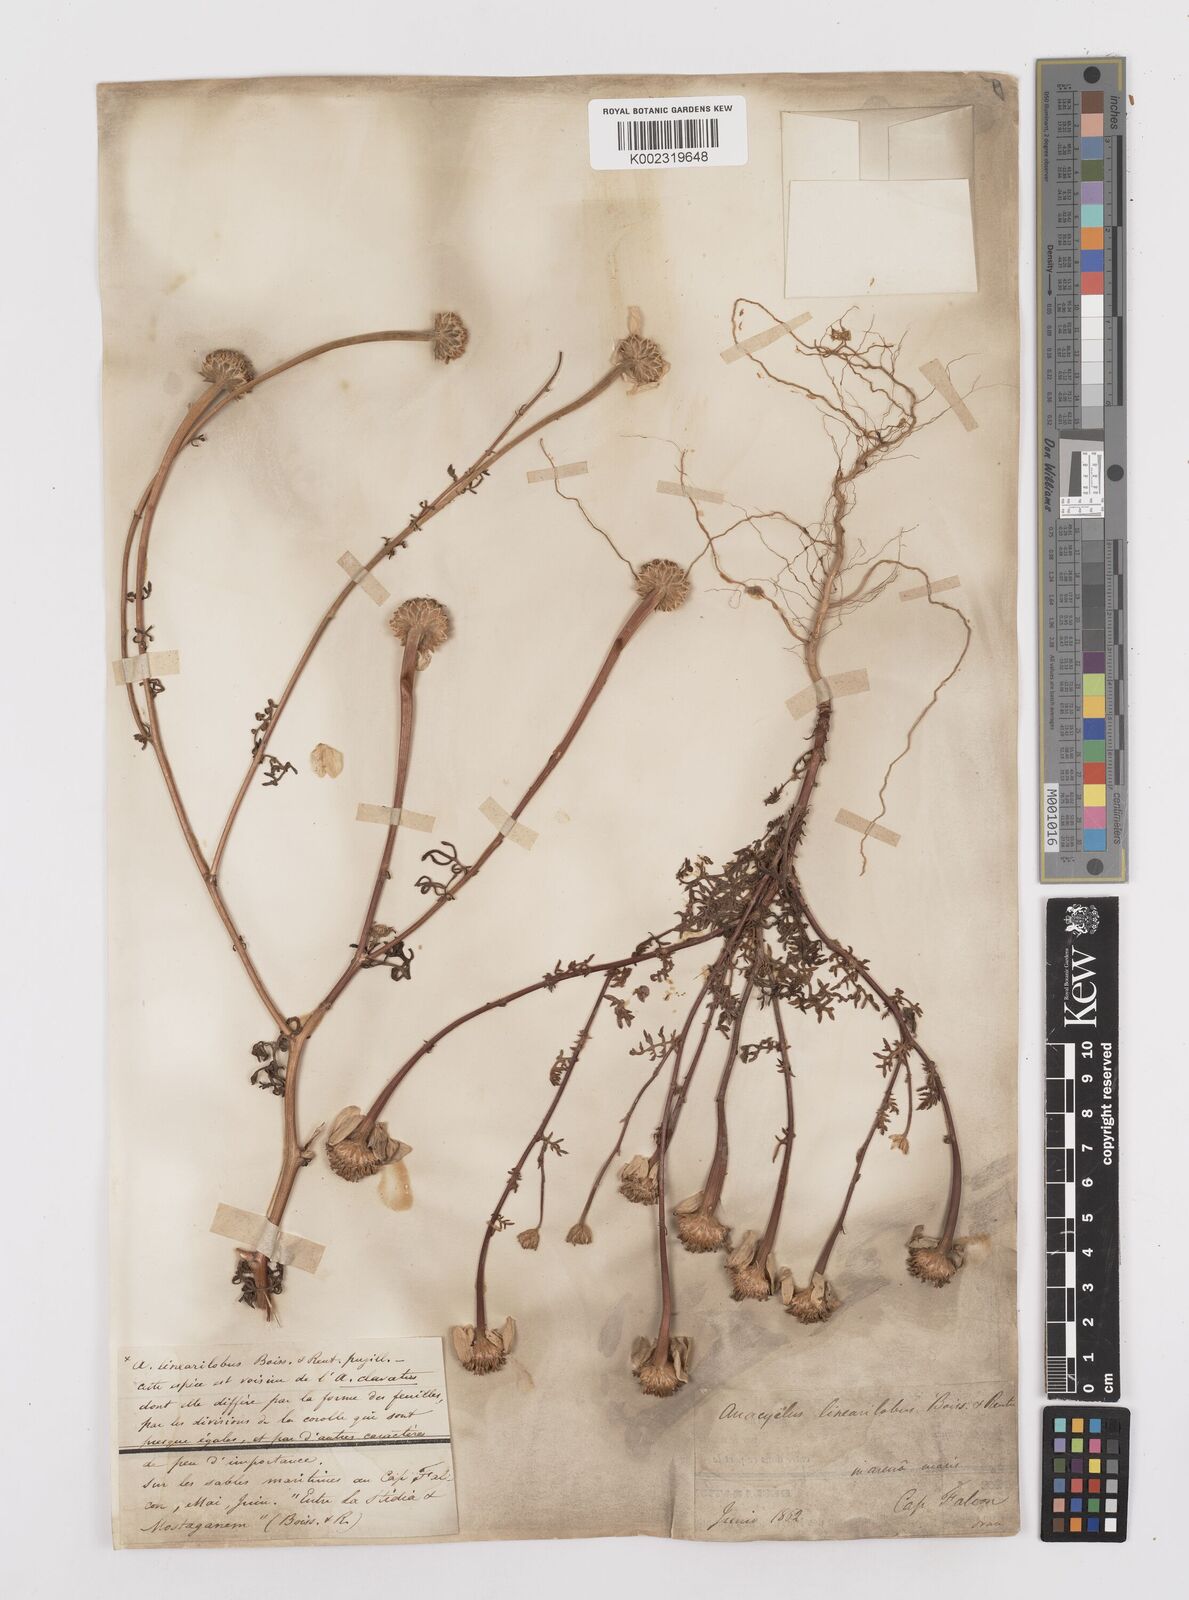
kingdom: Plantae
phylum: Tracheophyta
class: Magnoliopsida
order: Asterales
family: Asteraceae
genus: Anacyclus
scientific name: Anacyclus linearilobus
